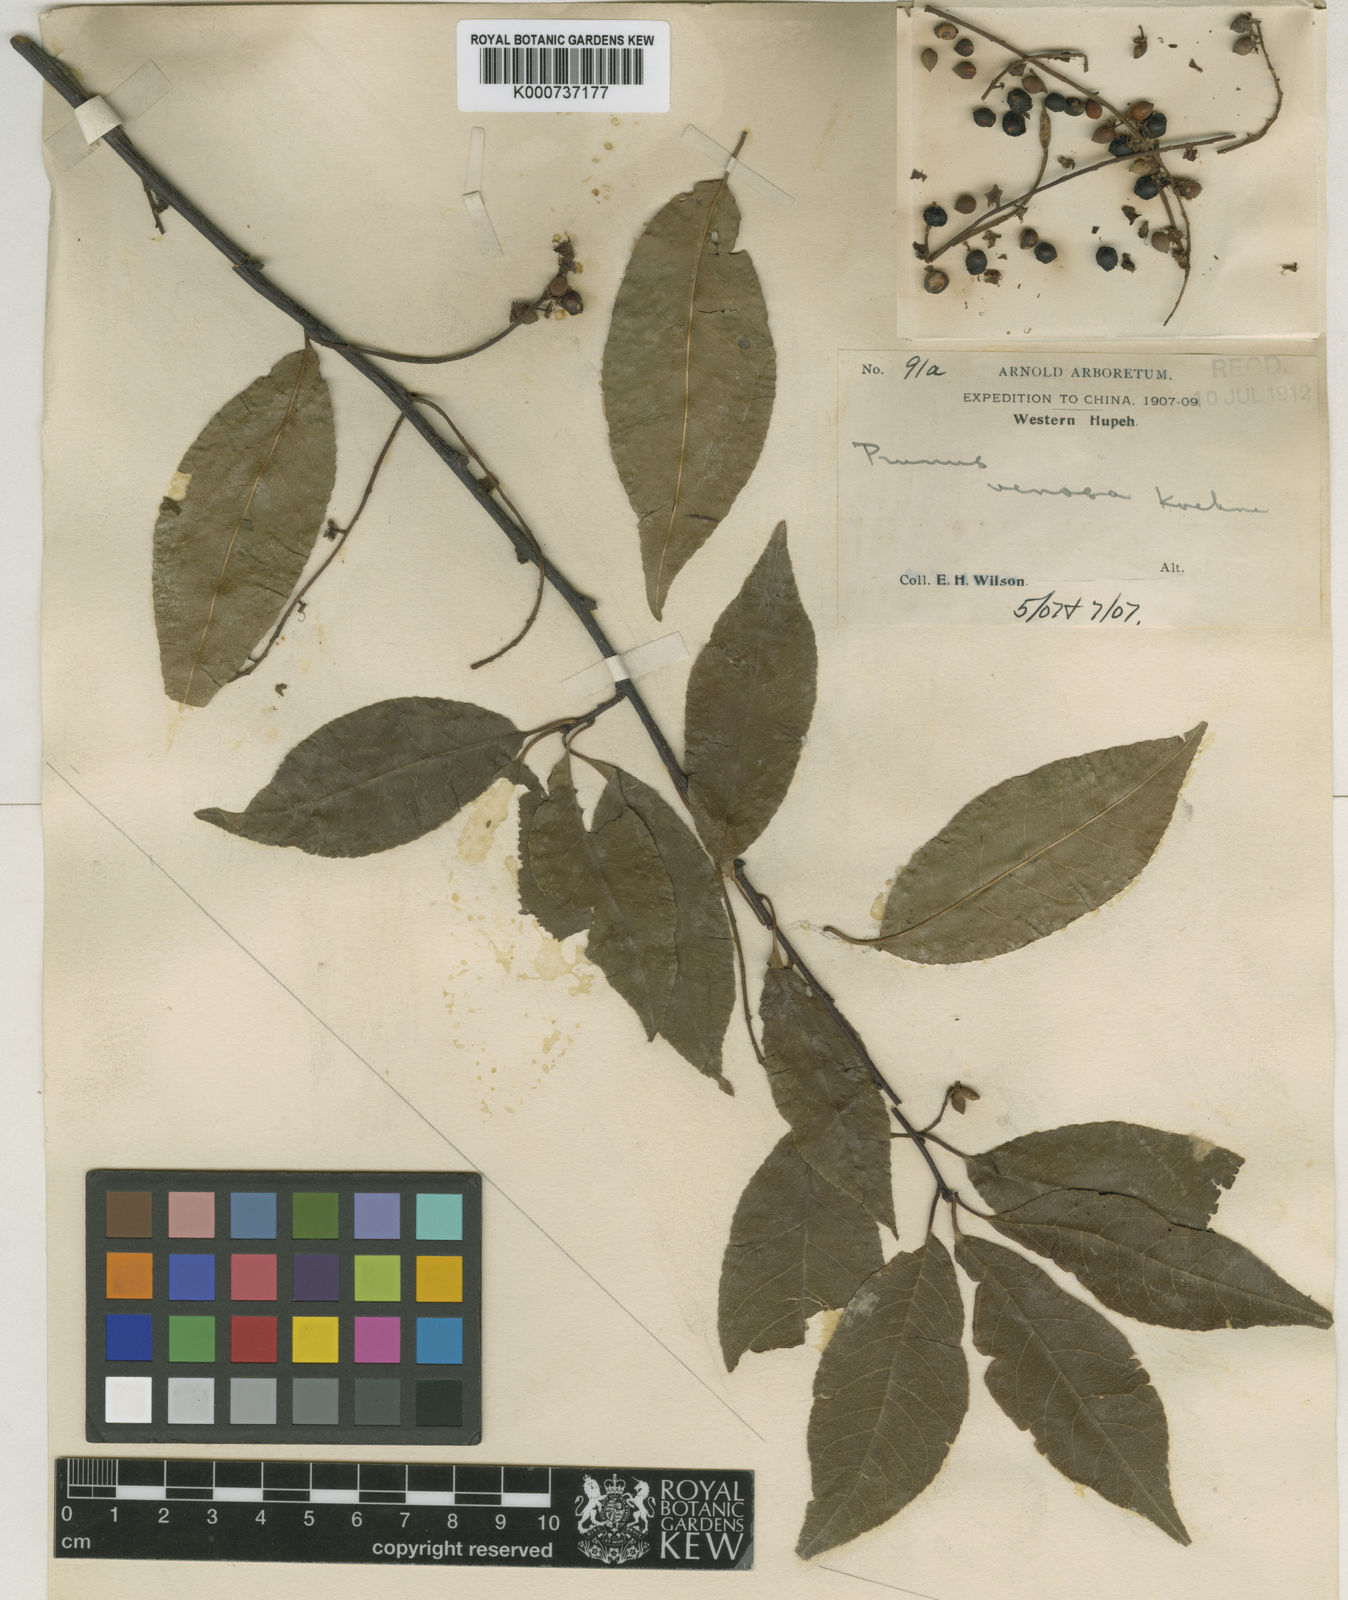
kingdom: Plantae
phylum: Tracheophyta
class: Magnoliopsida
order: Rosales
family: Rosaceae
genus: Prunus
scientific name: Prunus buergeriana
